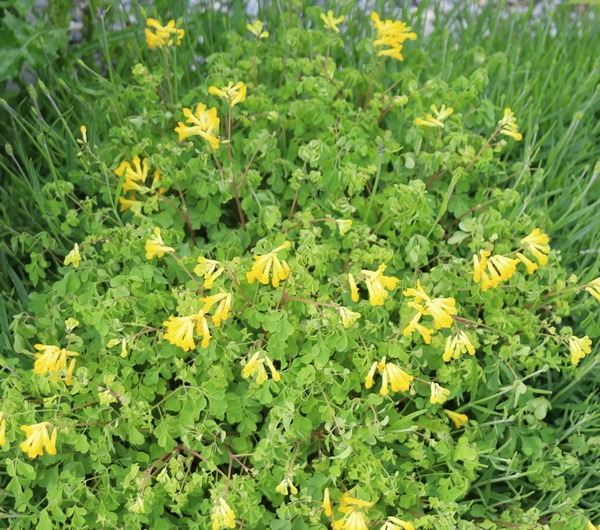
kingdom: Plantae
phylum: Tracheophyta
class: Magnoliopsida
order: Ranunculales
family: Papaveraceae
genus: Pseudofumaria
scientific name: Pseudofumaria lutea
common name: Gul lærkespore
